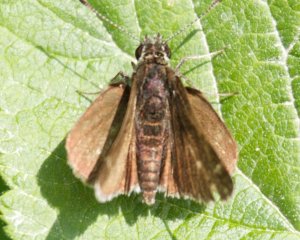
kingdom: Animalia
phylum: Arthropoda
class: Insecta
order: Lepidoptera
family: Hesperiidae
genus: Euphyes
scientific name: Euphyes vestris
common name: Dun Skipper
